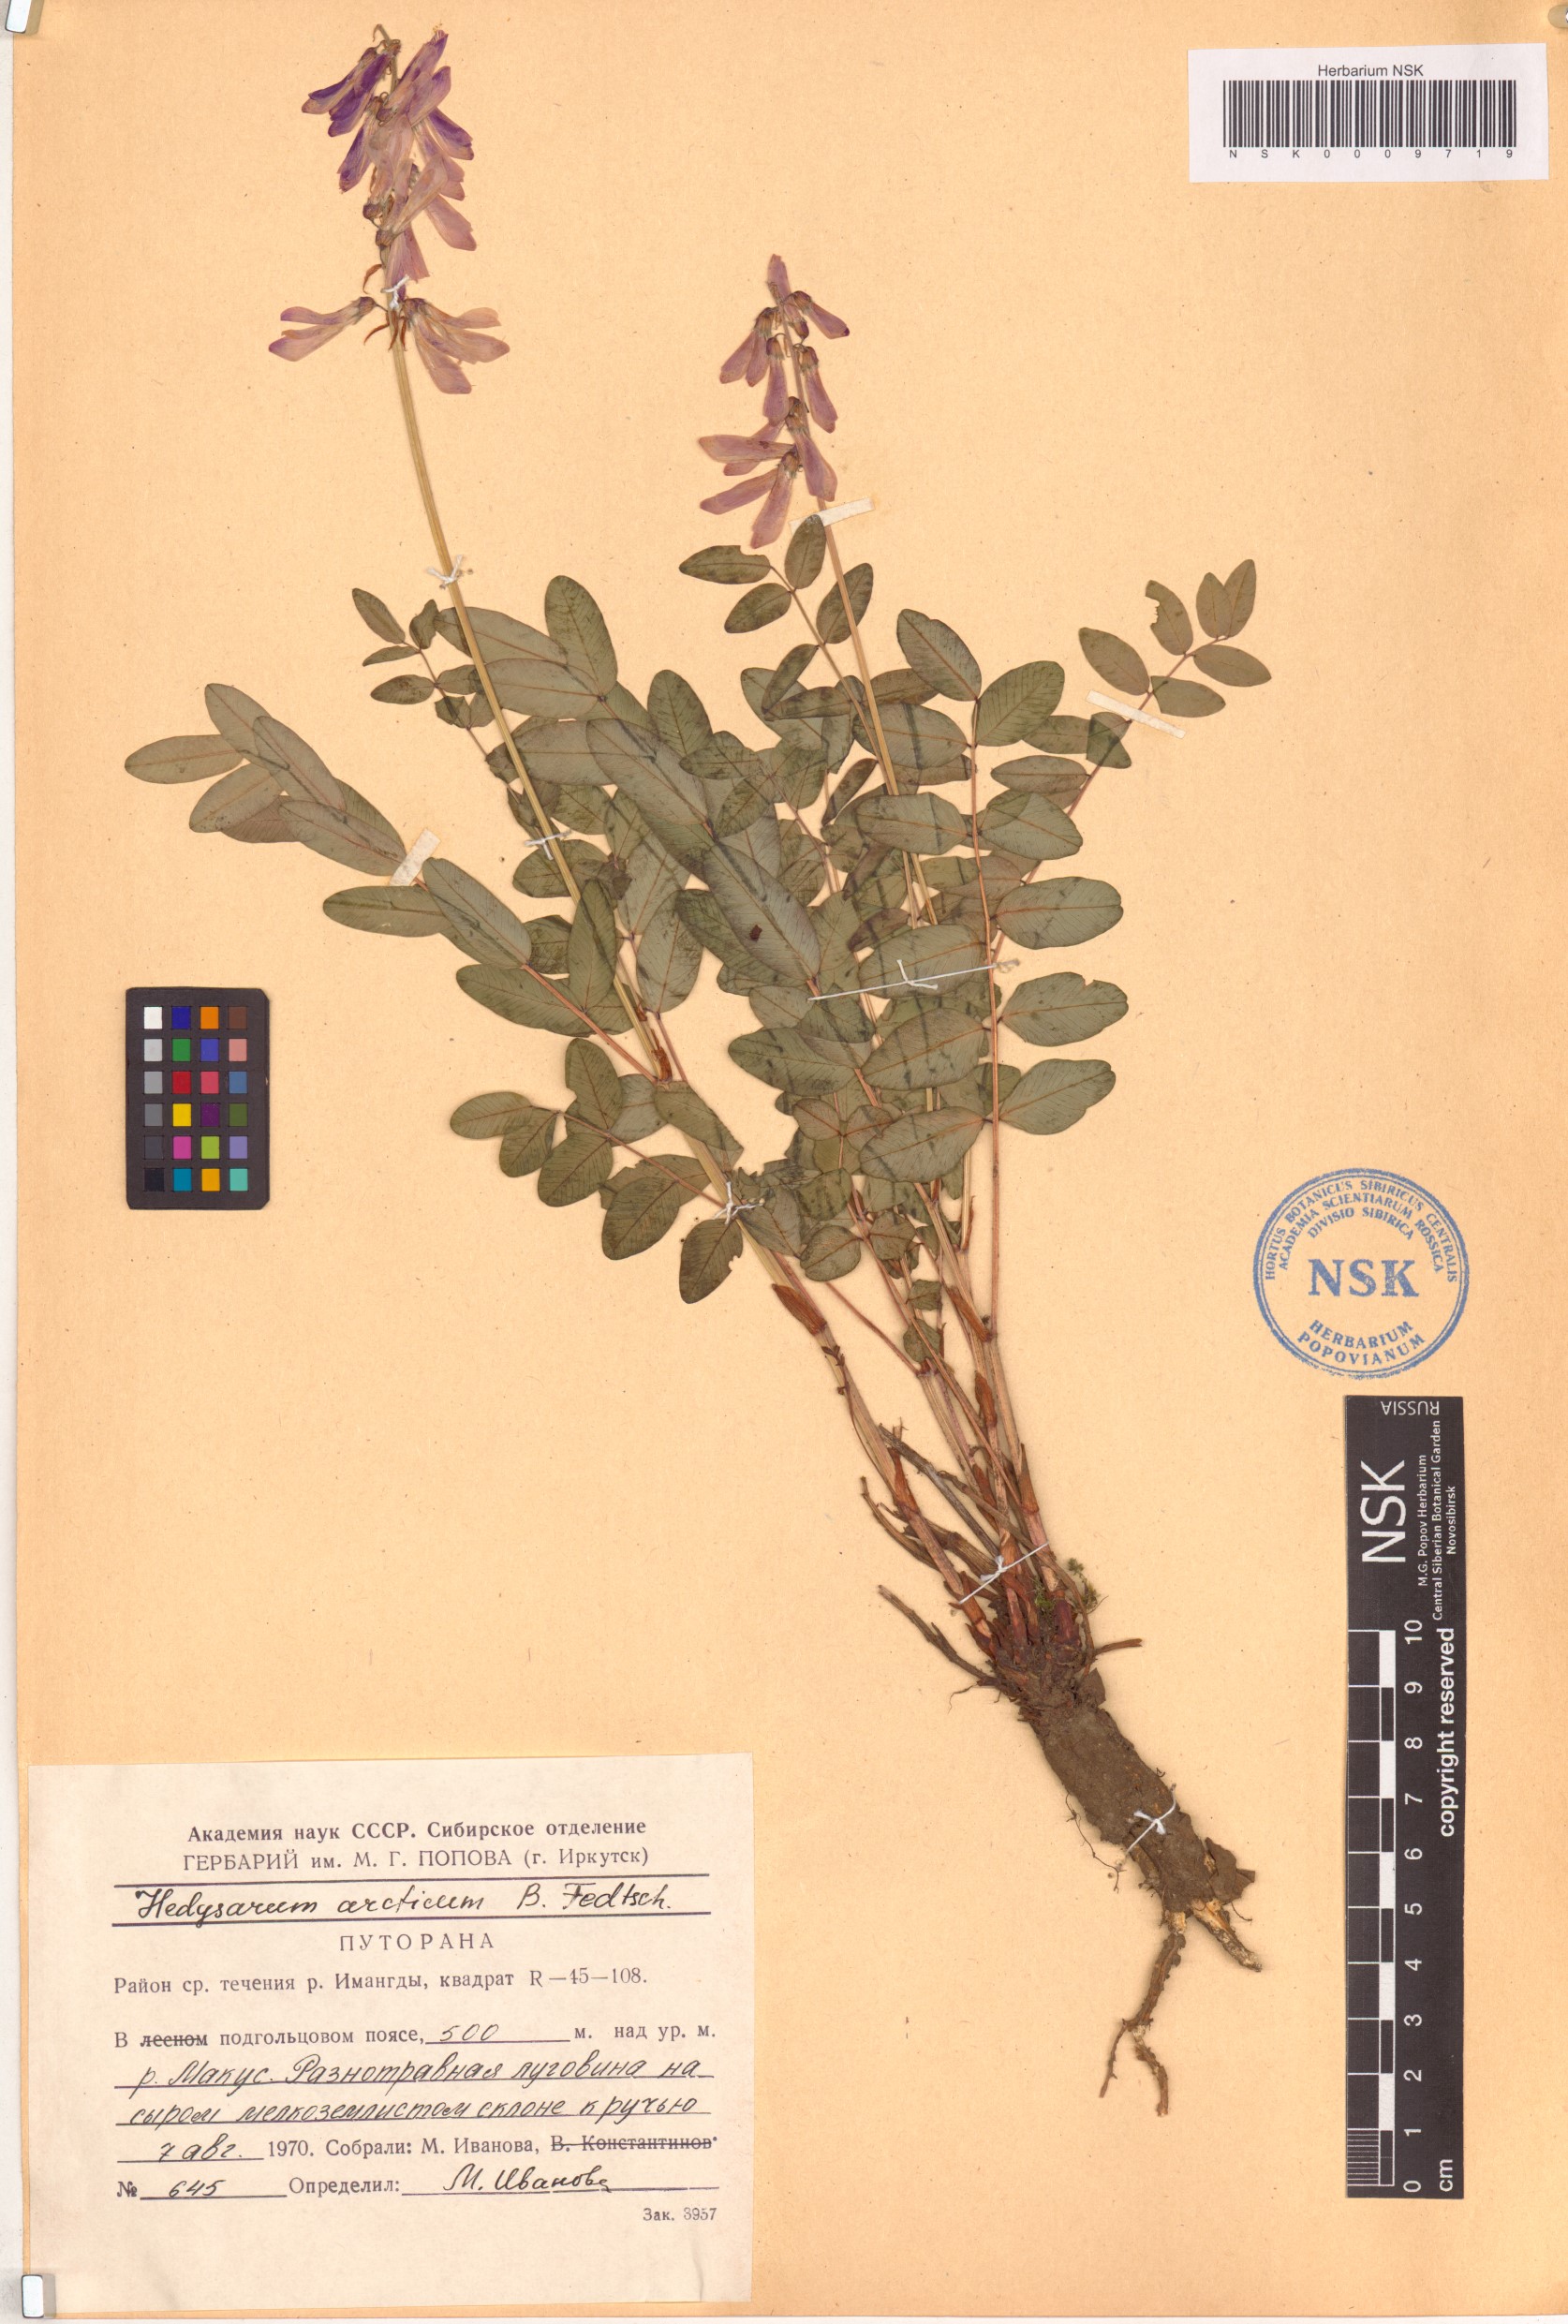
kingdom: Plantae
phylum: Tracheophyta
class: Magnoliopsida
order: Fabales
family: Fabaceae
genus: Hedysarum
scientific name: Hedysarum hedysaroides
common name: Alpine french-honeysuckle
